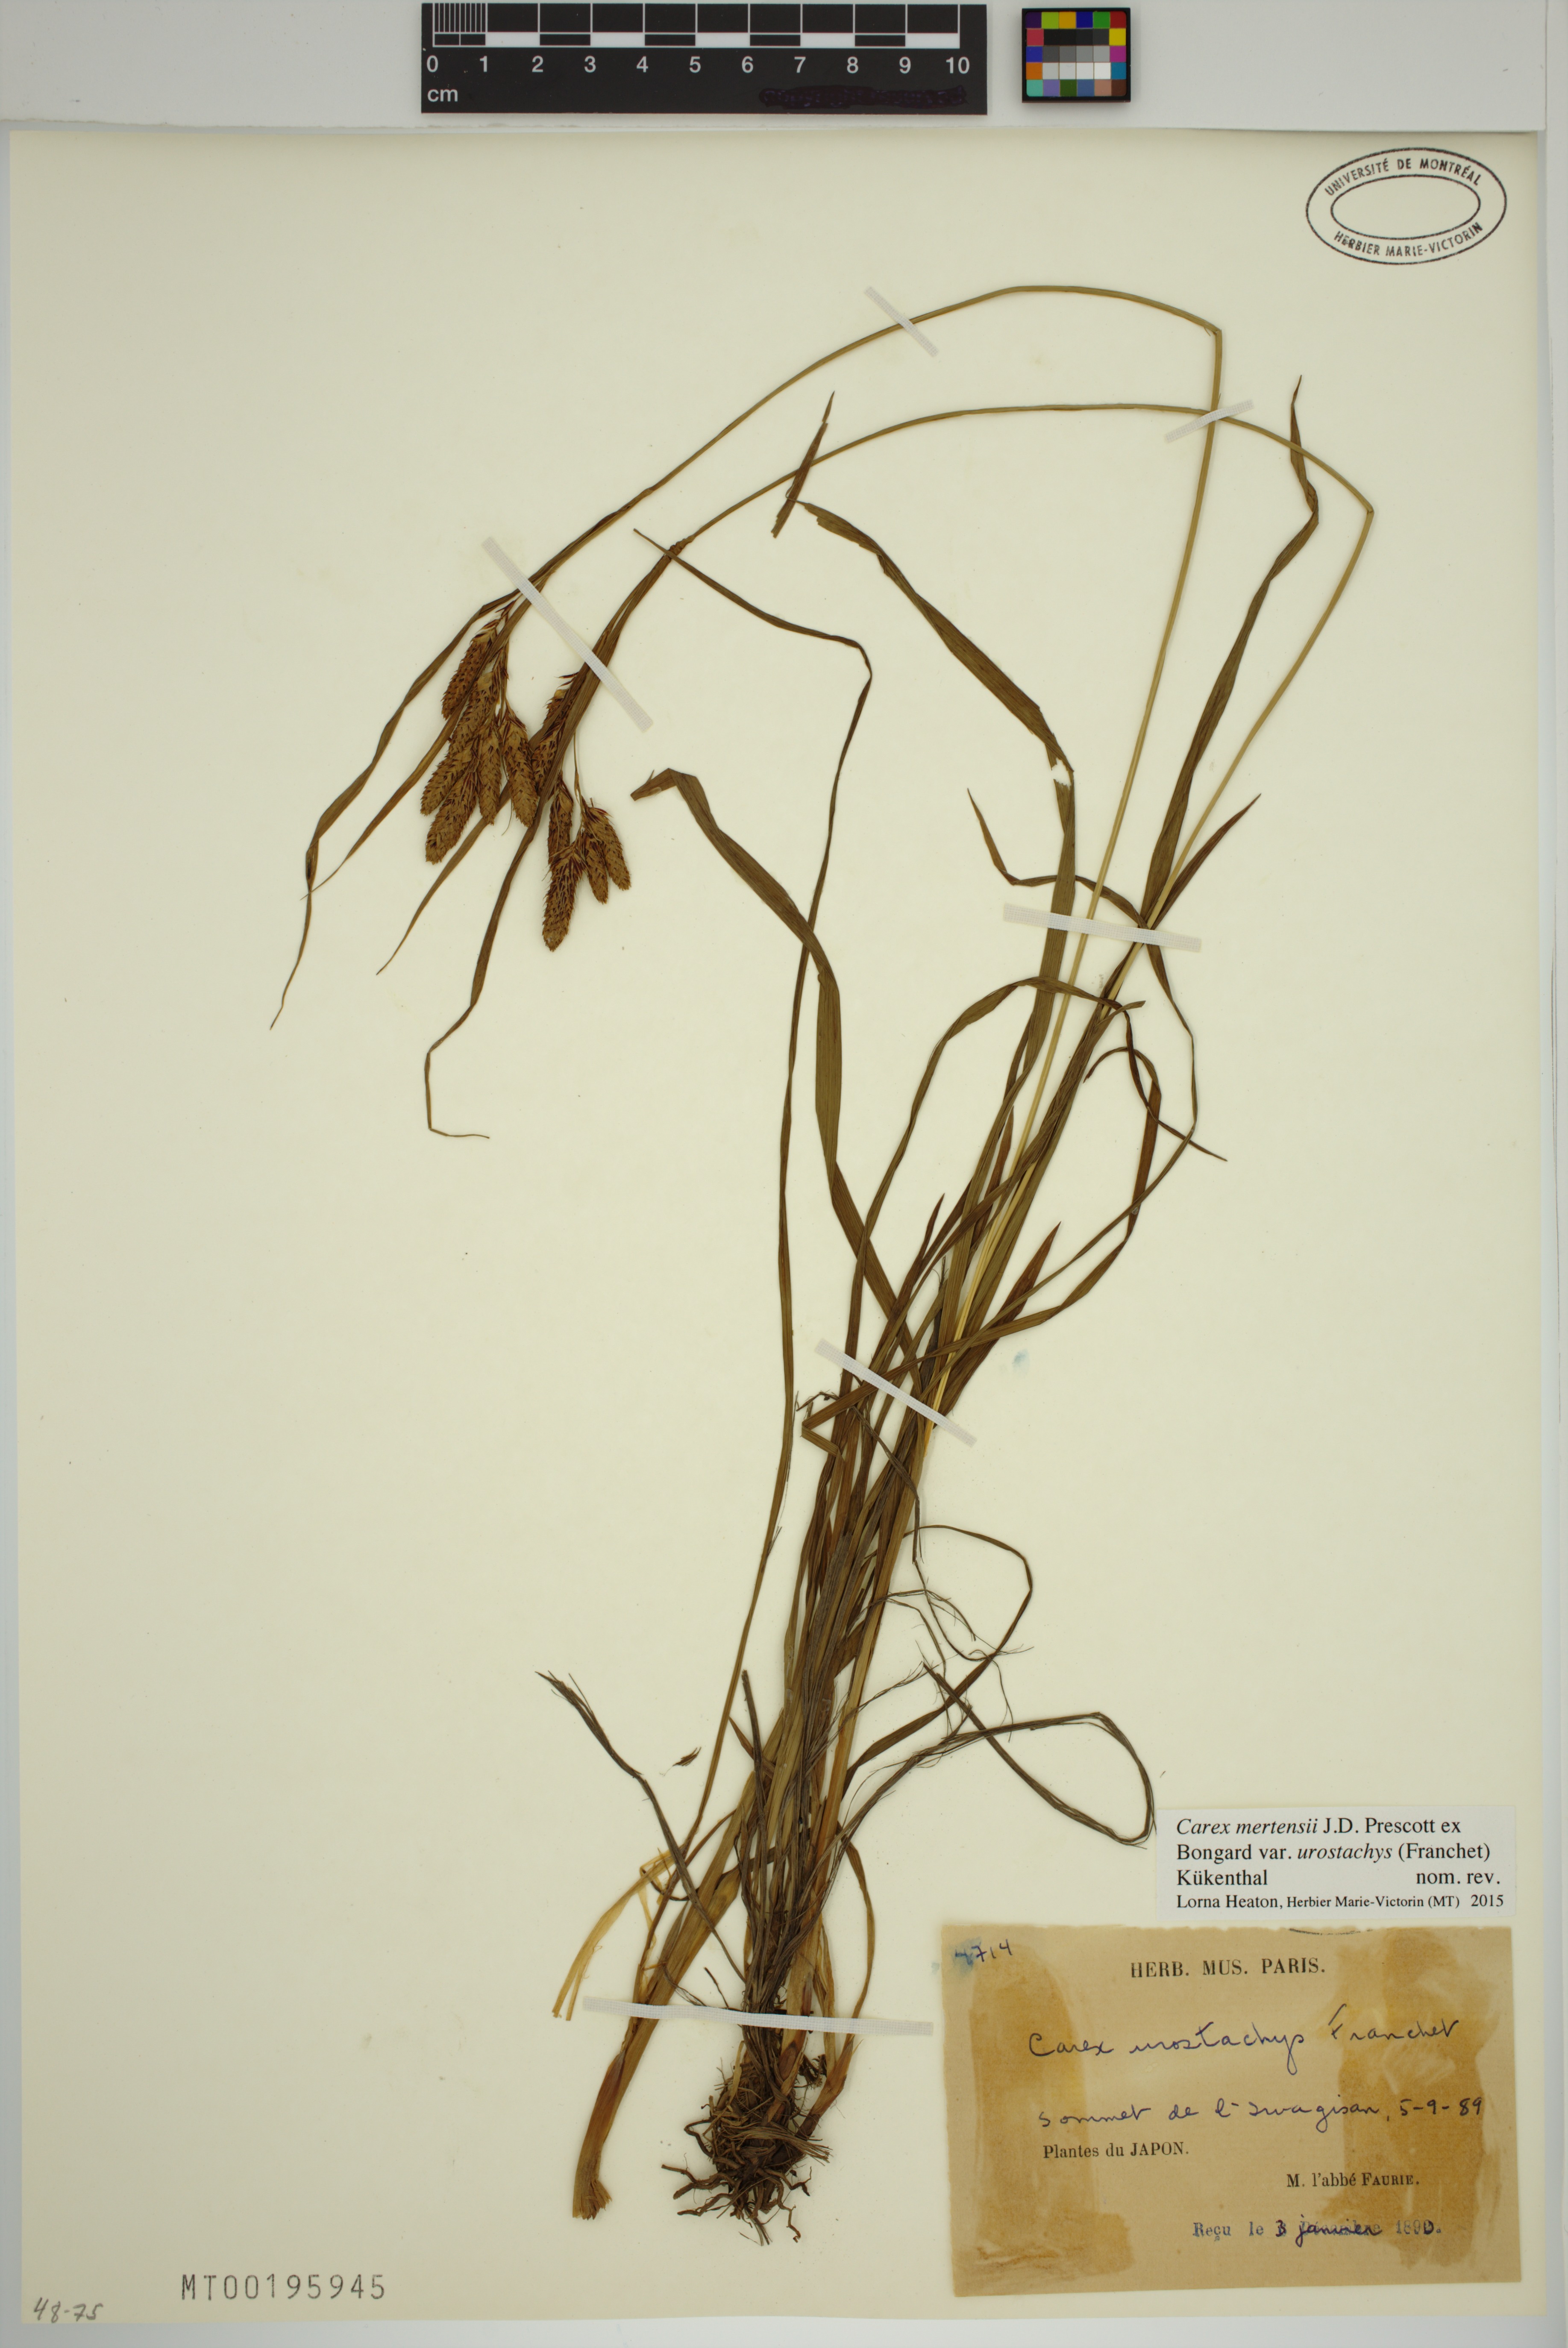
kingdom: Plantae
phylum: Tracheophyta
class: Liliopsida
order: Poales
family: Cyperaceae
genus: Carex
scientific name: Carex mertensii
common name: Mertens' sedge
